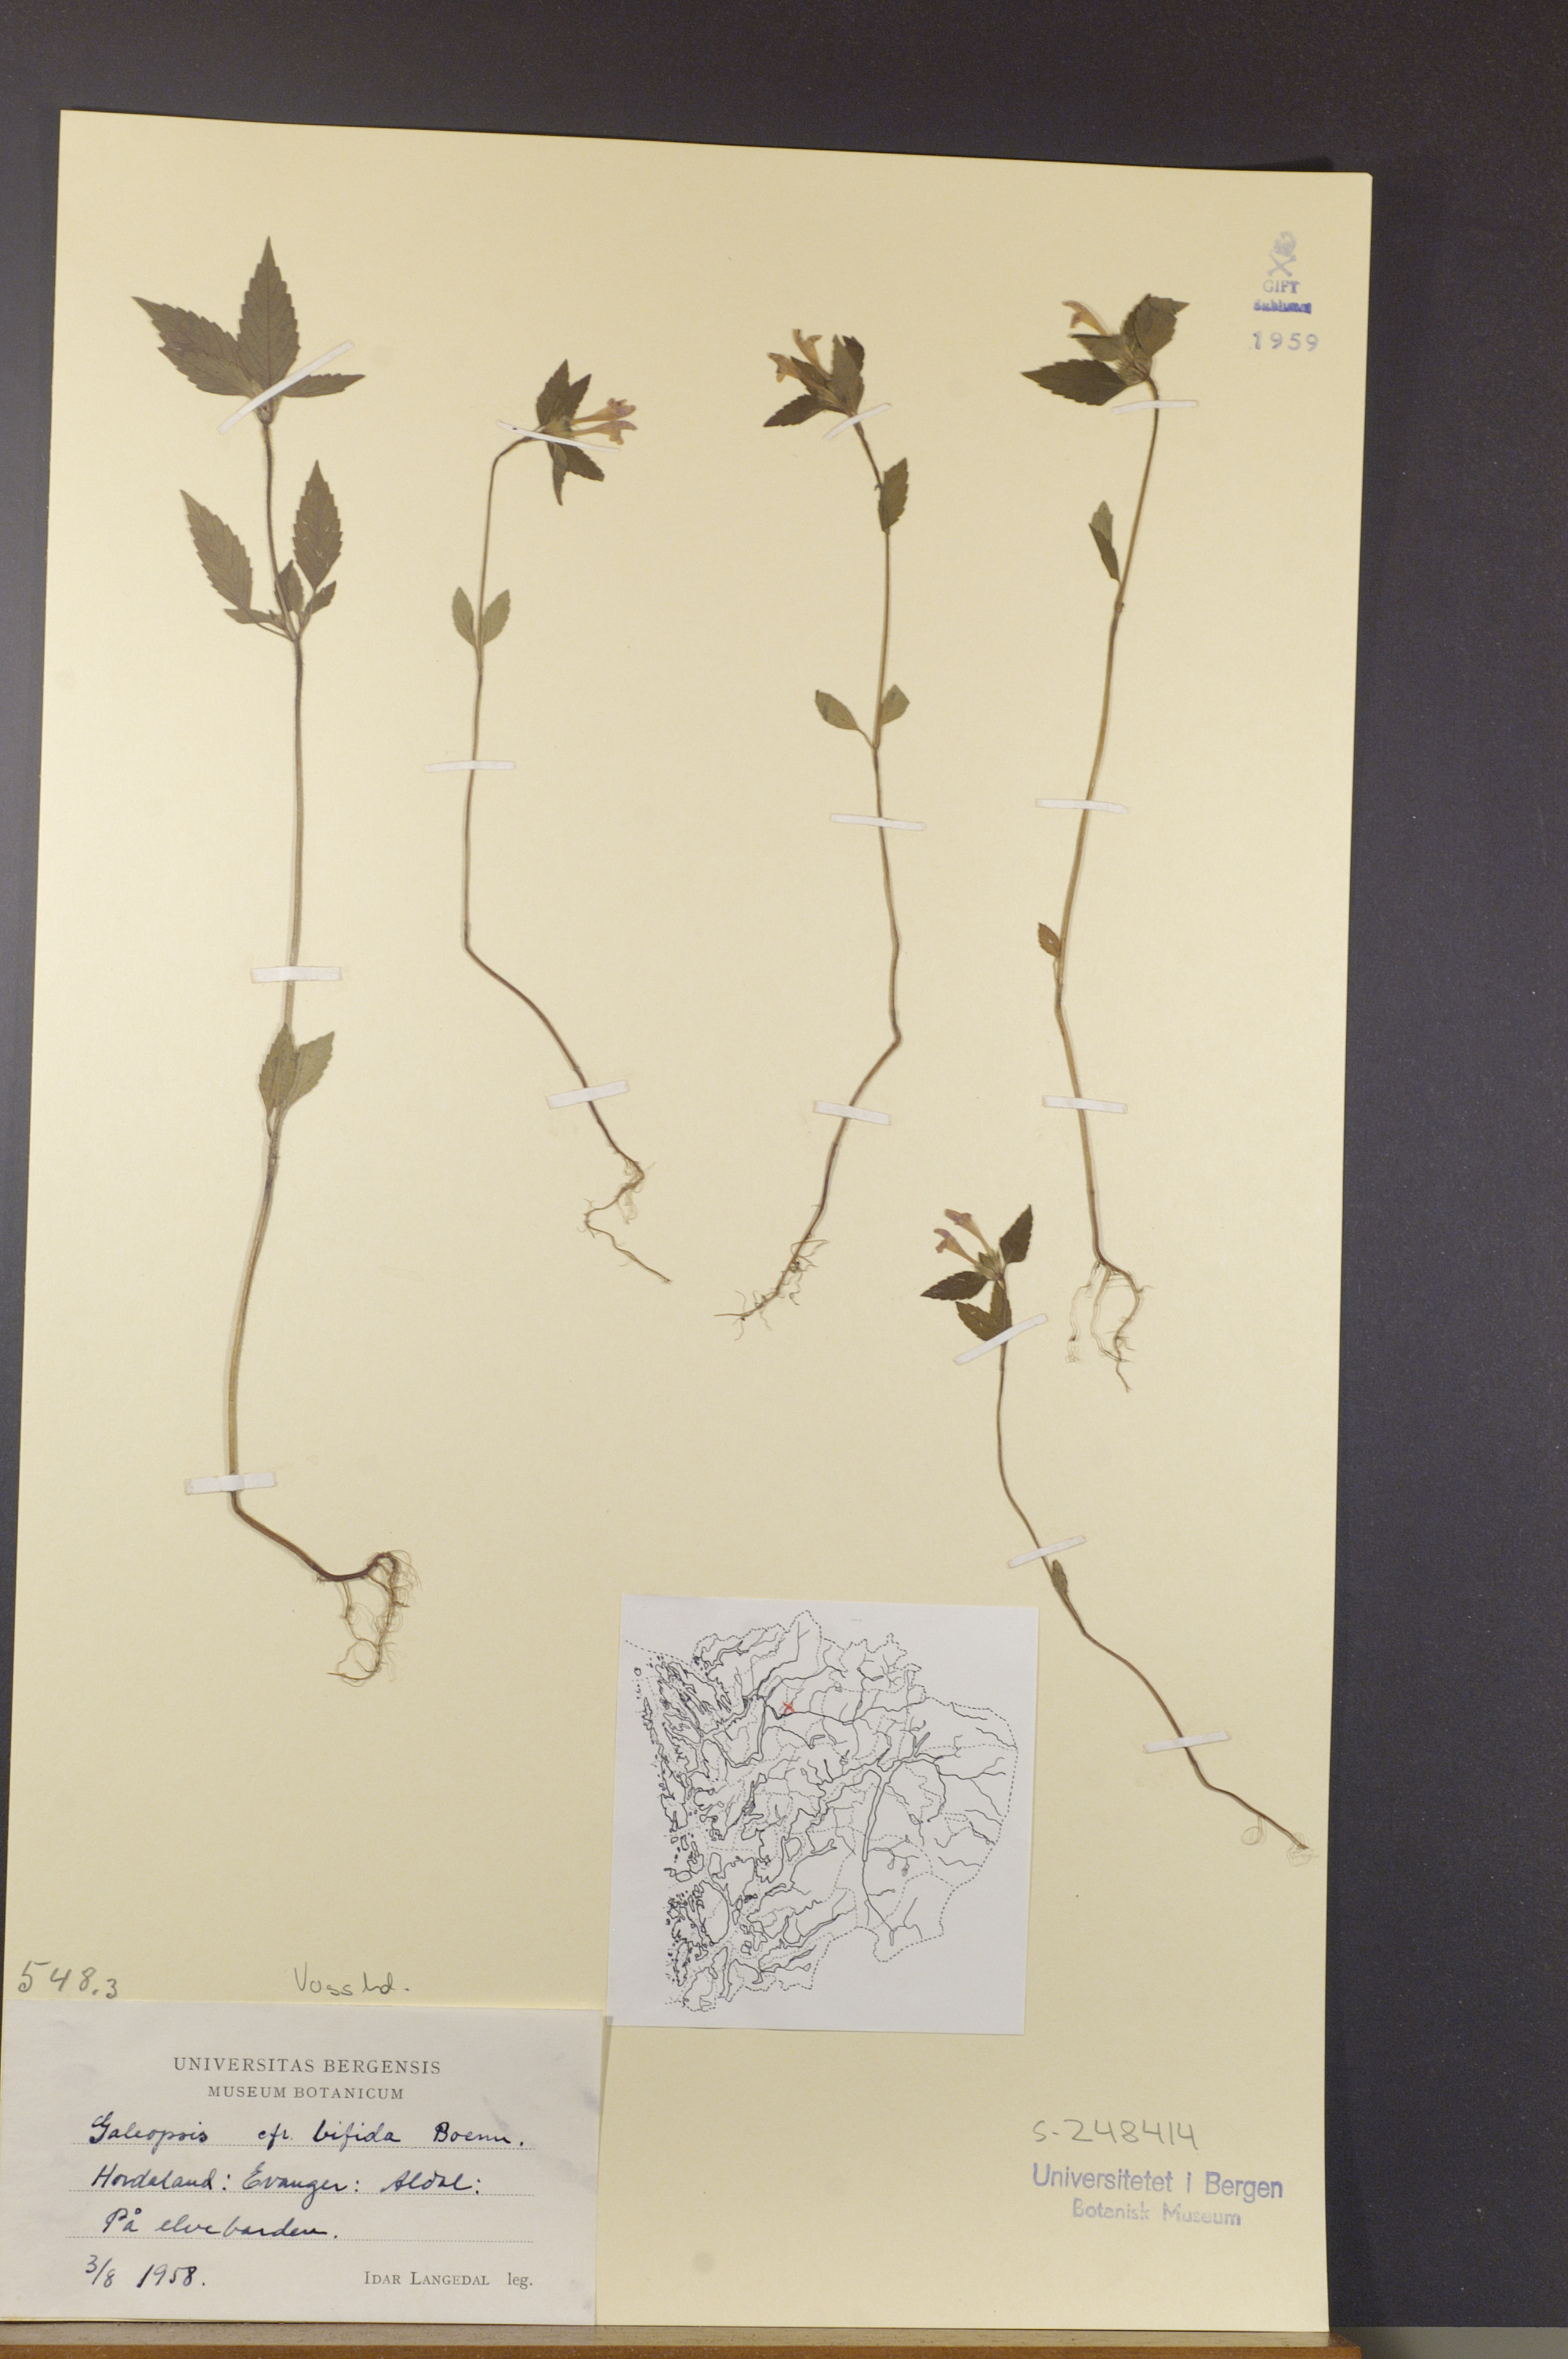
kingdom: Plantae
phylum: Tracheophyta
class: Magnoliopsida
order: Lamiales
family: Lamiaceae
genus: Galeopsis
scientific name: Galeopsis bifida
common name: Bifid hemp-nettle
